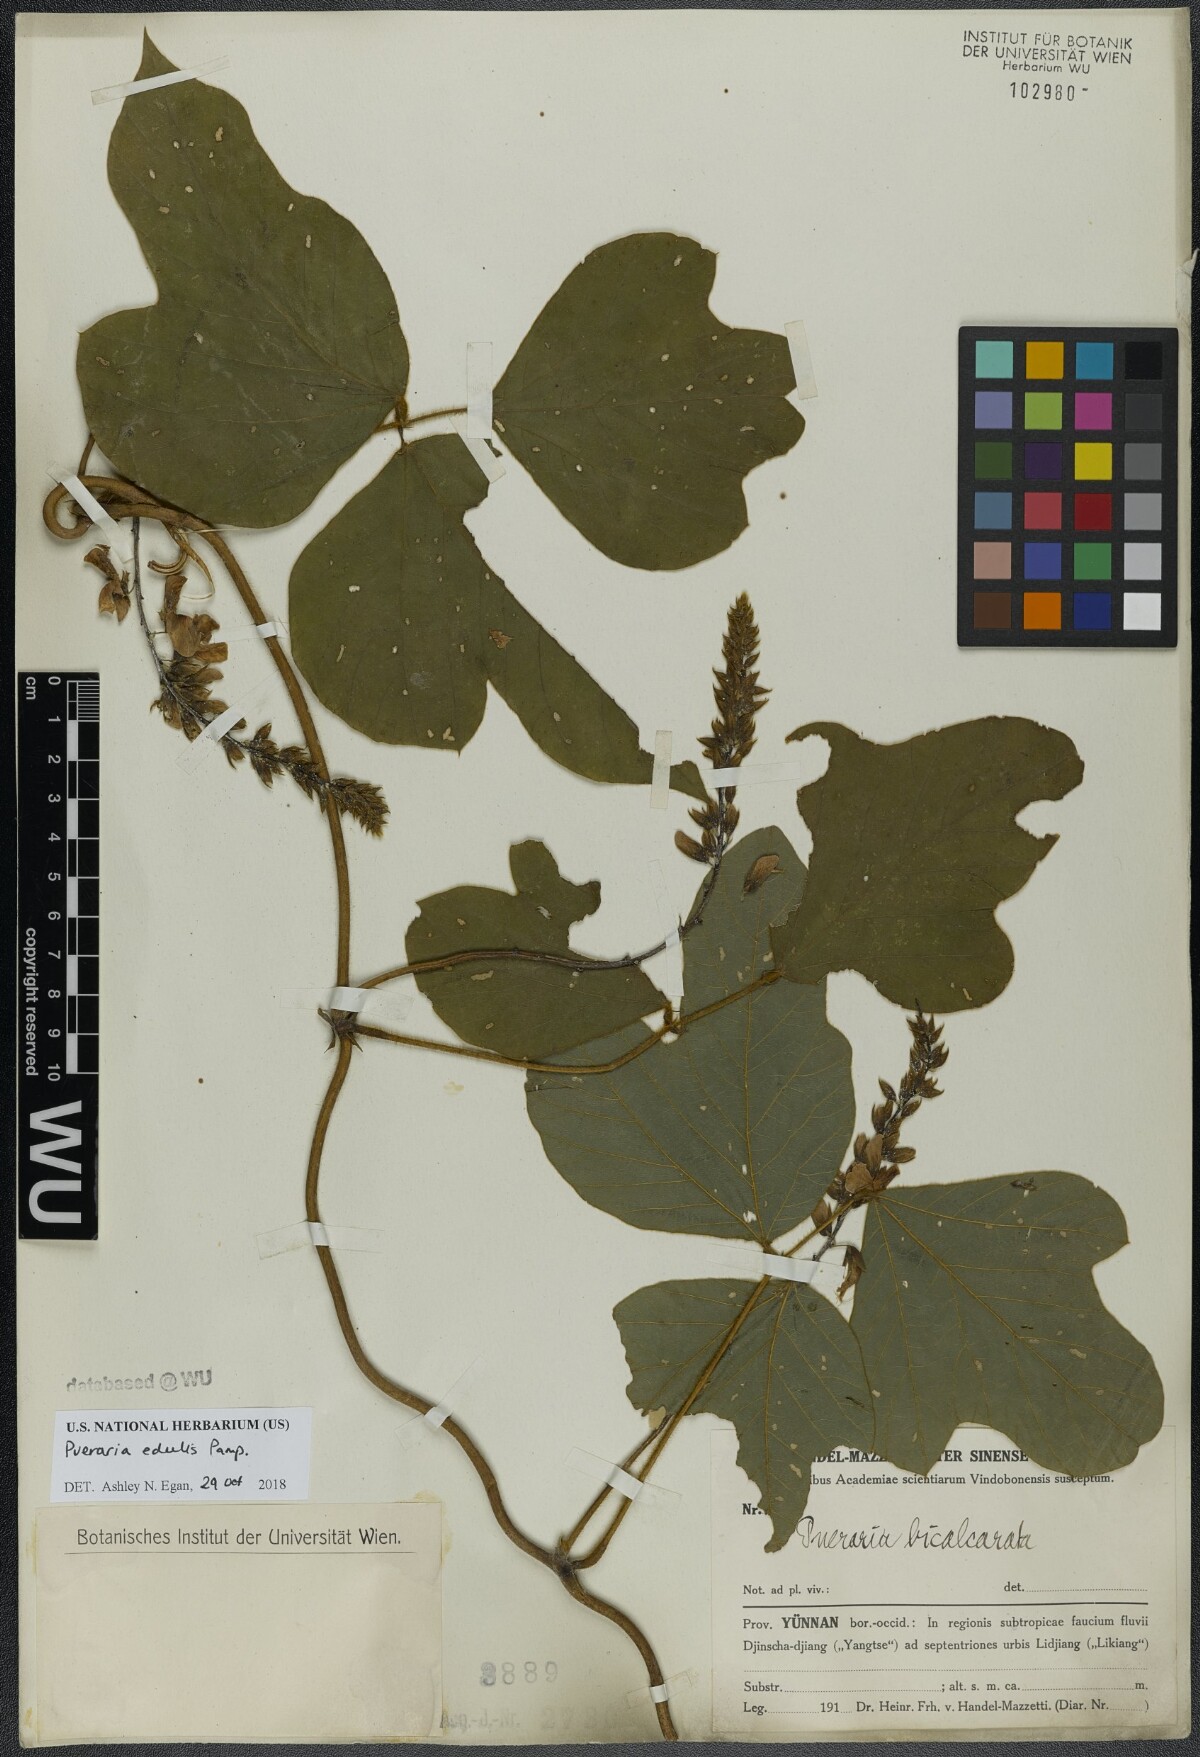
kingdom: Plantae
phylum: Tracheophyta
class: Magnoliopsida
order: Fabales
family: Fabaceae
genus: Pueraria
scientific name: Pueraria edulis
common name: Edible kudzu
